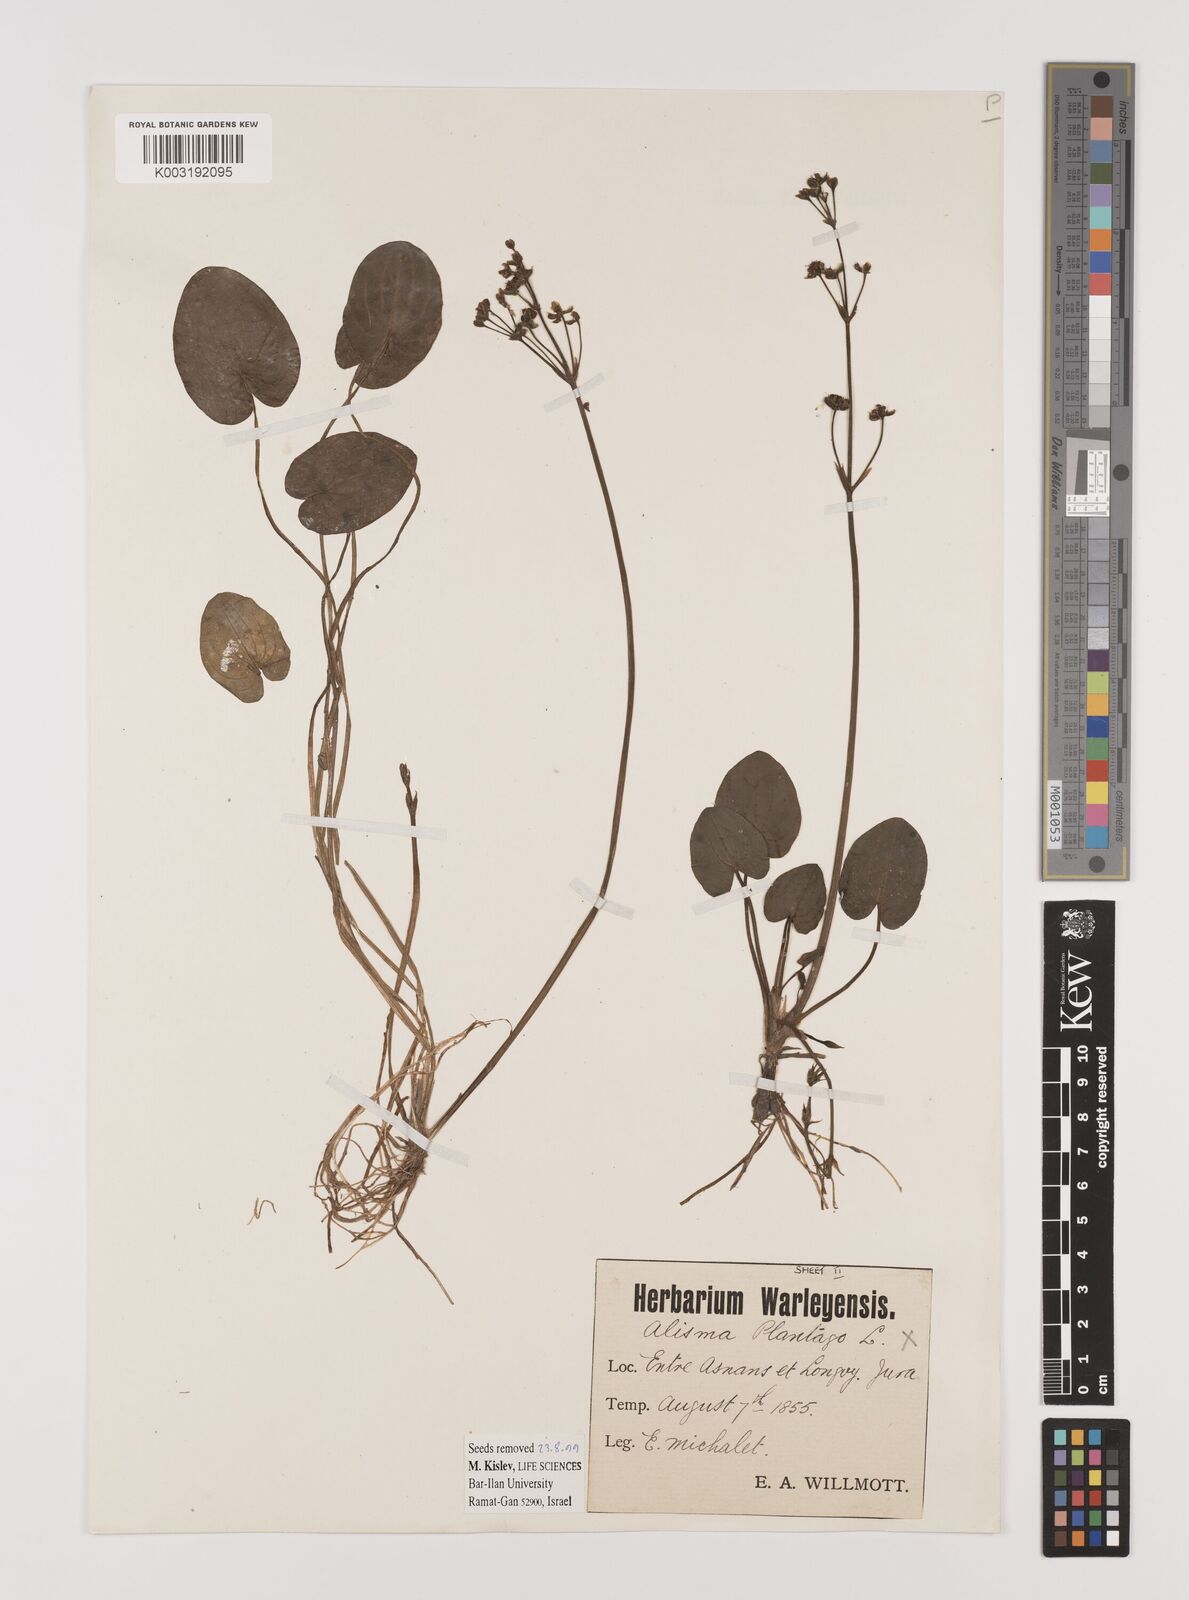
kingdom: Plantae
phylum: Tracheophyta
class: Liliopsida
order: Alismatales
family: Alismataceae
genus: Alisma
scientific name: Alisma plantago-aquatica
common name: Water-plantain
